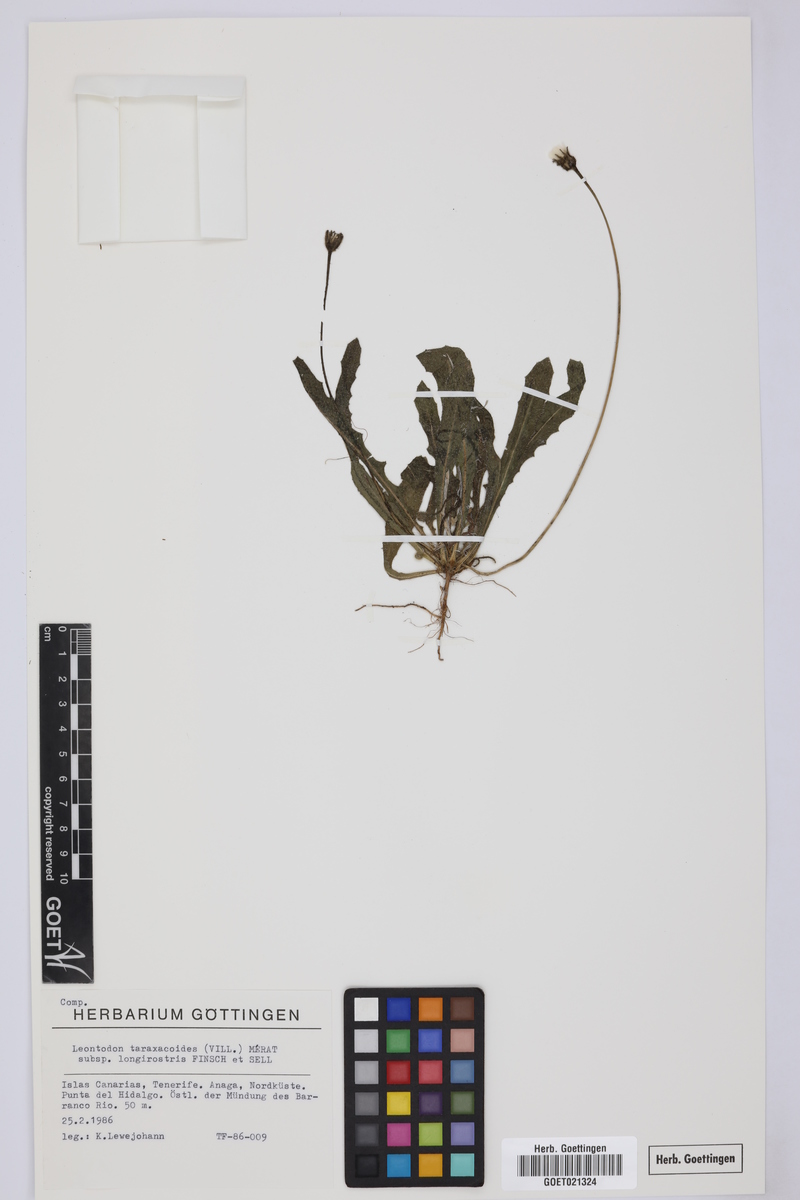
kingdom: Plantae
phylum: Tracheophyta
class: Magnoliopsida
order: Asterales
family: Asteraceae
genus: Thrincia
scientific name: Thrincia hispida
